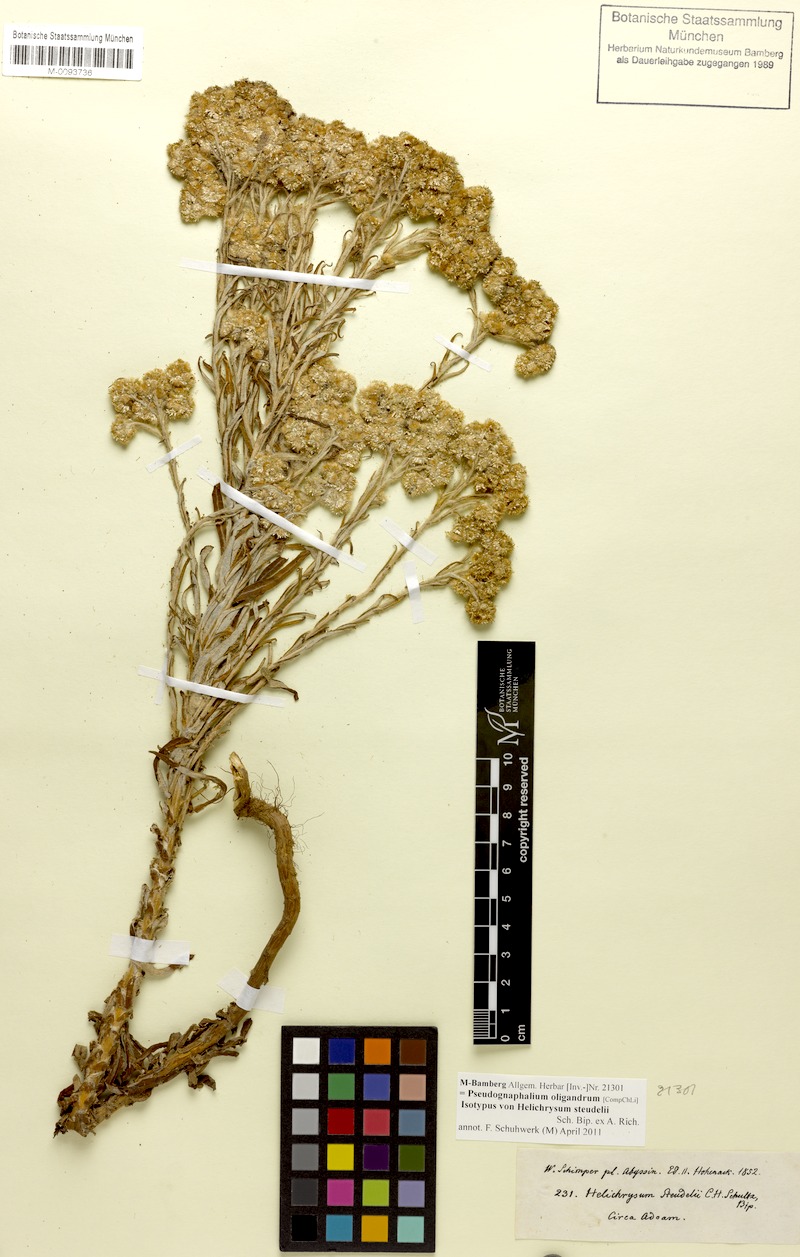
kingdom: Plantae
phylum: Tracheophyta
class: Magnoliopsida
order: Asterales
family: Asteraceae
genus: Pseudognaphalium
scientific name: Pseudognaphalium oligandrum
